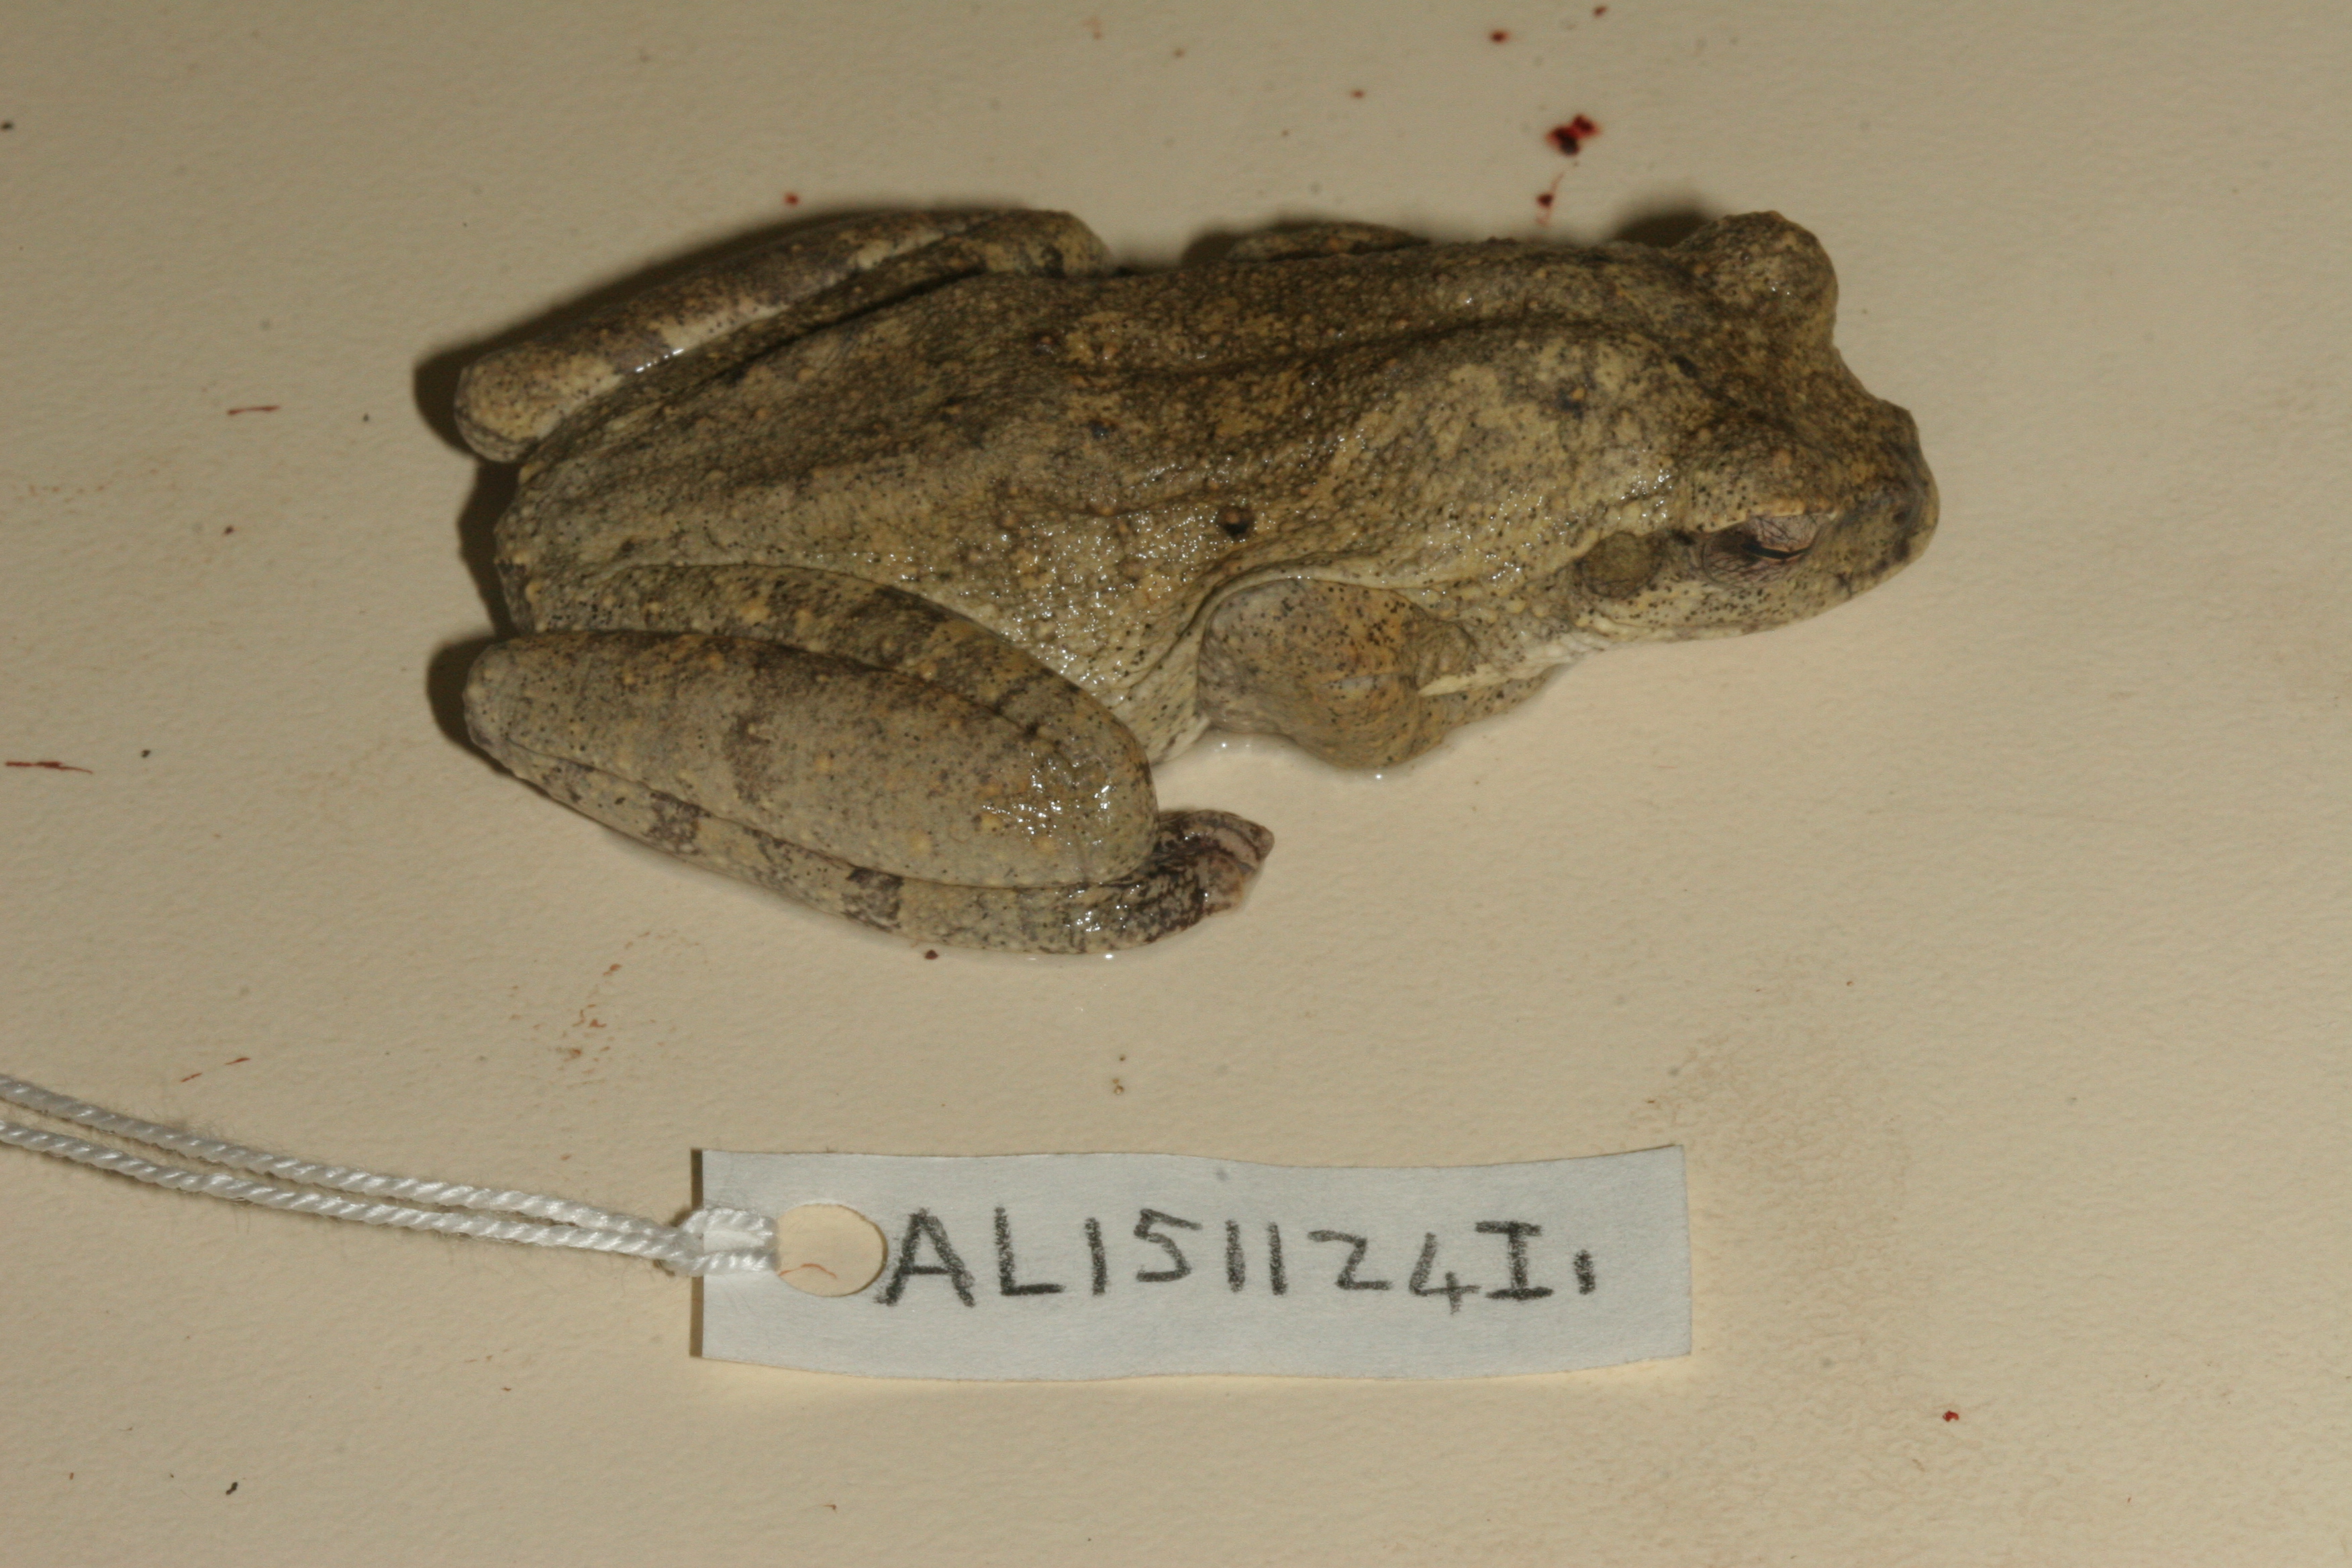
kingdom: Animalia
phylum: Chordata
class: Amphibia
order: Anura
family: Rhacophoridae
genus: Chiromantis
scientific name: Chiromantis xerampelina
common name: African gray treefrog
